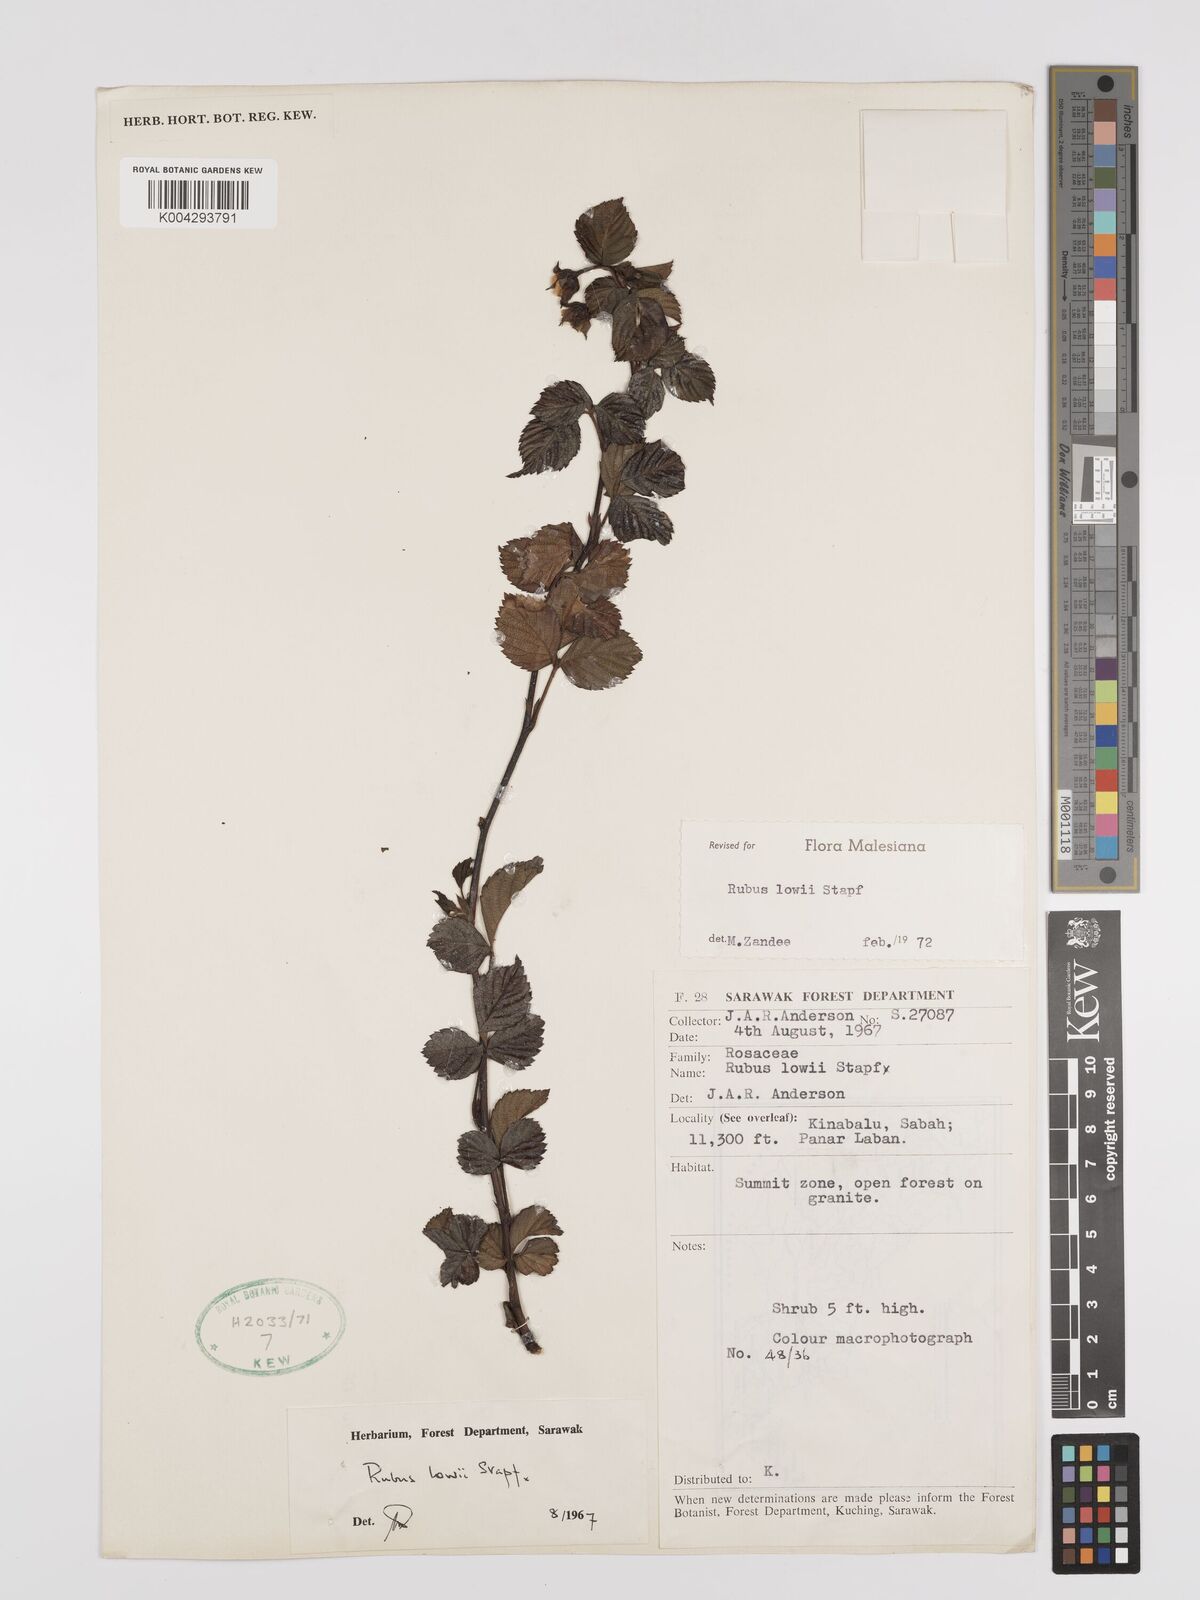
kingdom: Plantae
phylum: Tracheophyta
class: Magnoliopsida
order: Rosales
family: Rosaceae
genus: Rubus
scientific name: Rubus lowii
